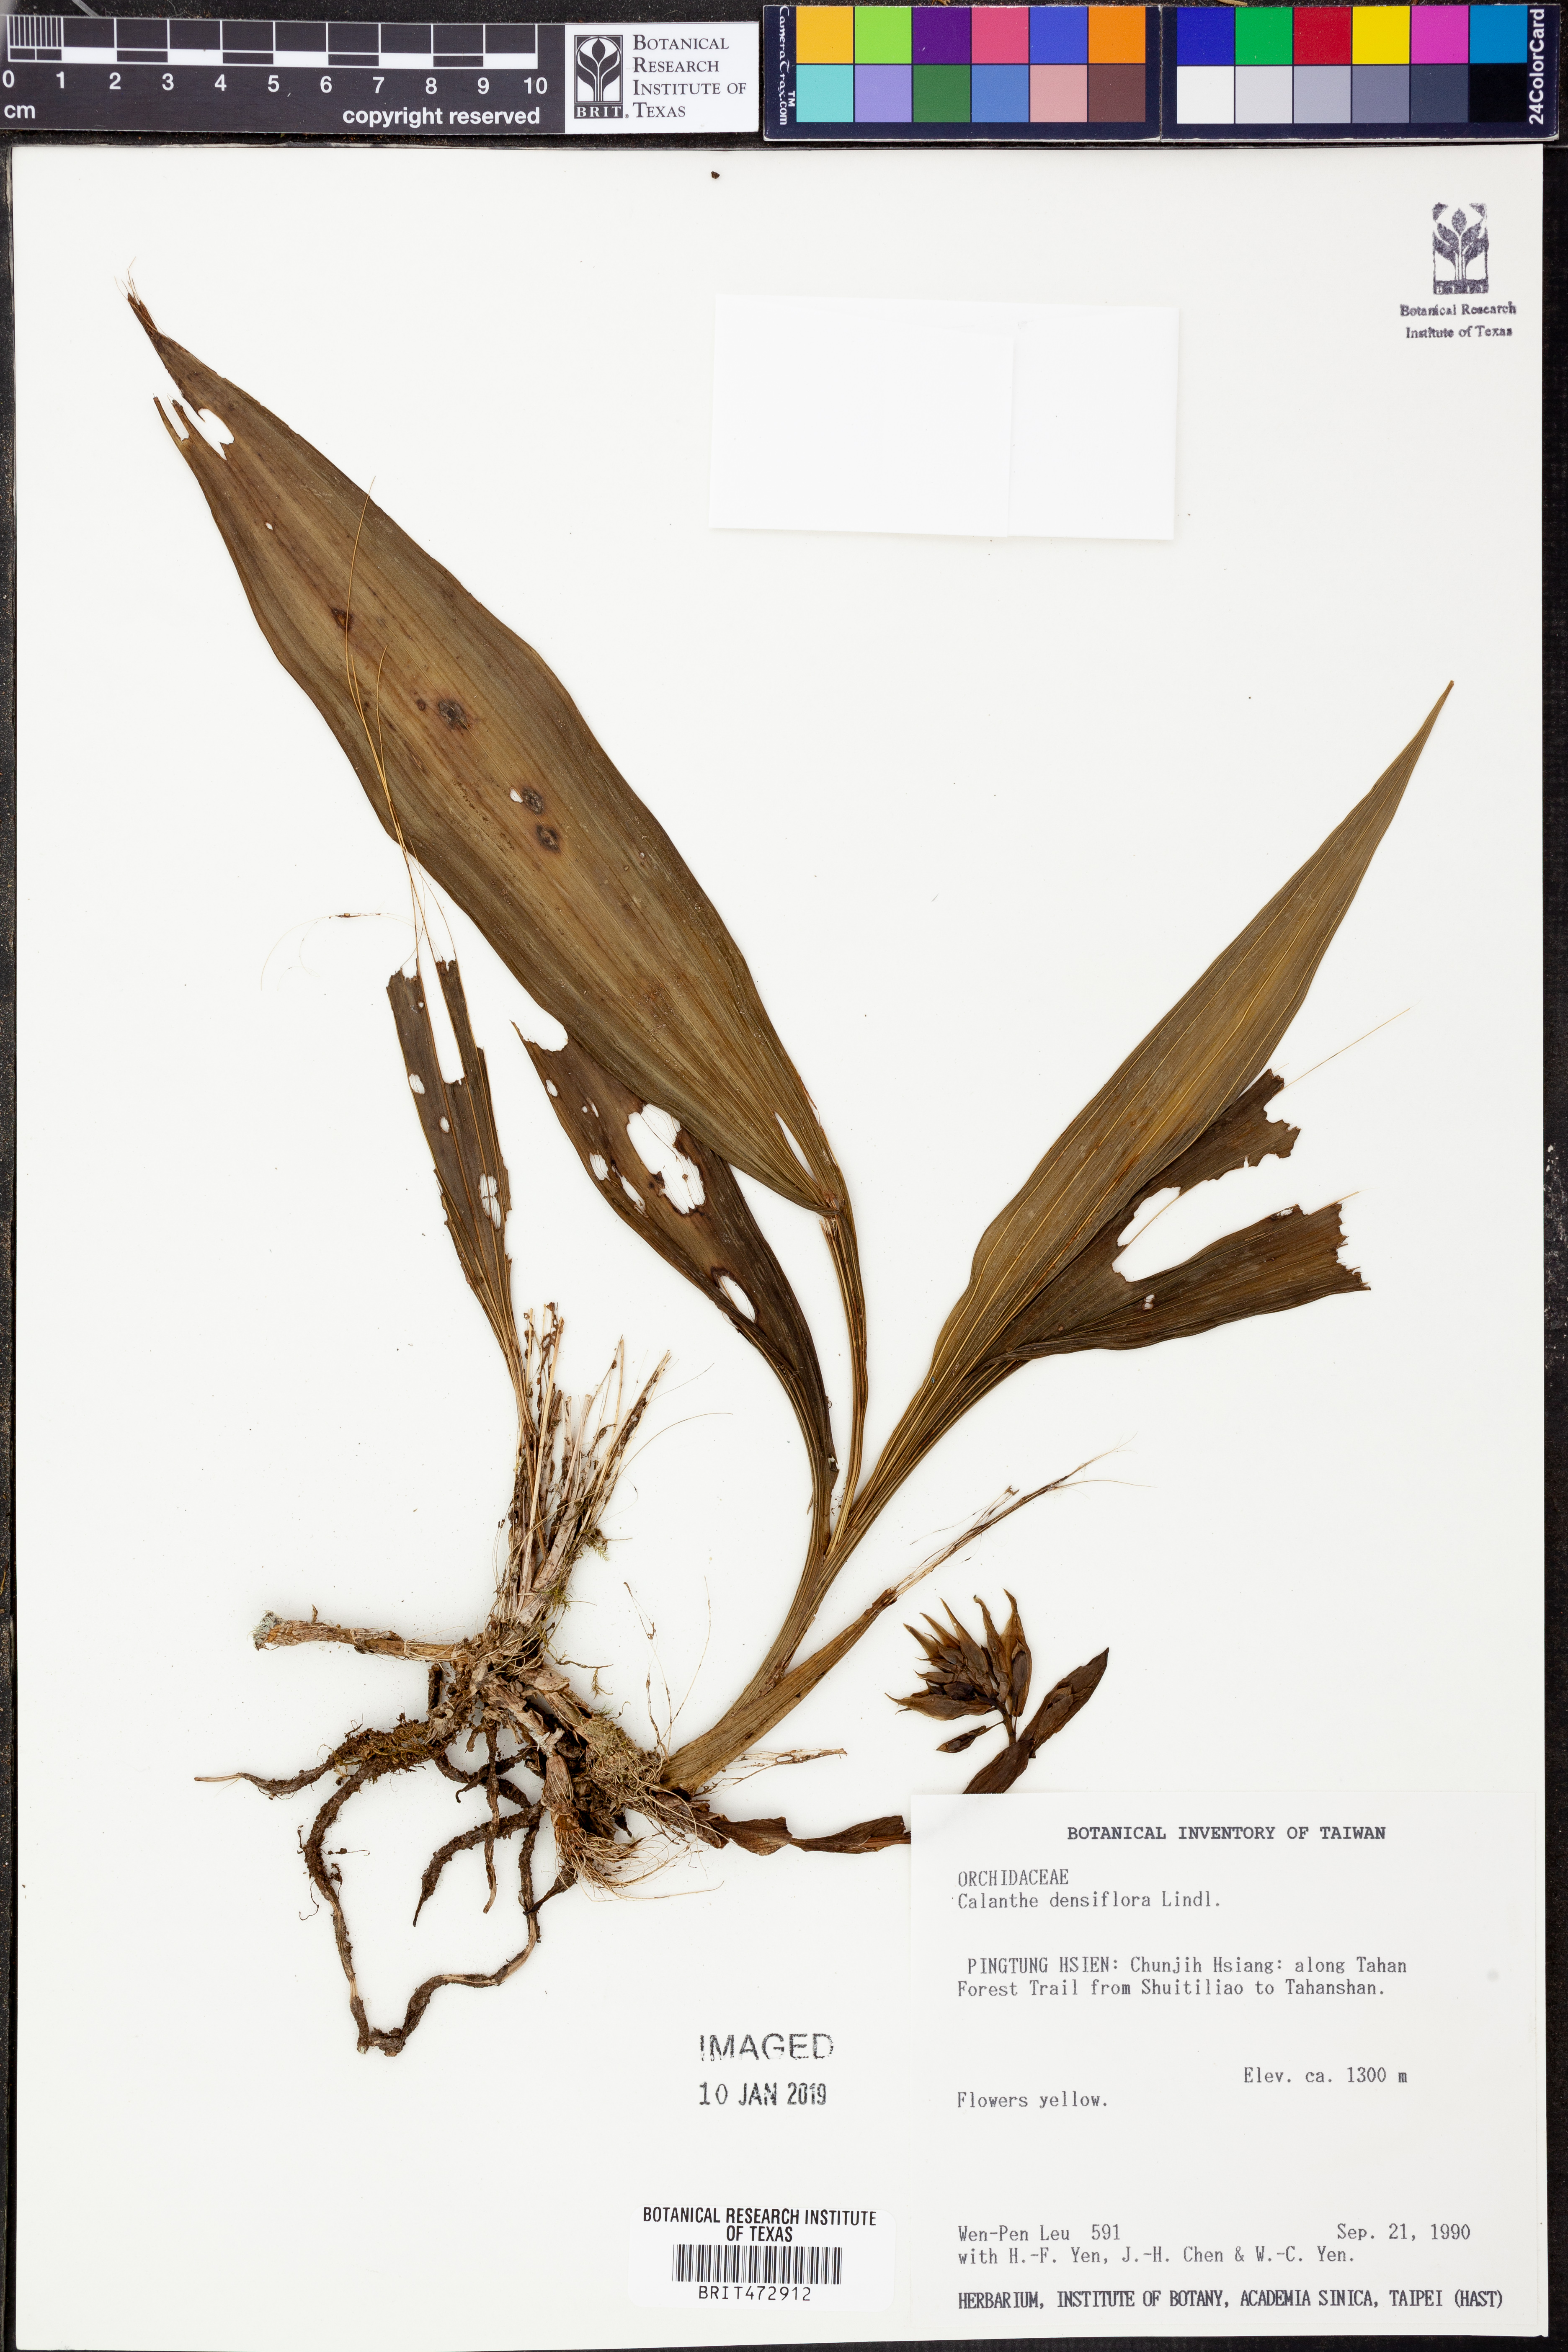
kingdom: Plantae
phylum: Tracheophyta
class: Liliopsida
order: Asparagales
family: Orchidaceae
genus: Calanthe
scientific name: Calanthe densiflora
